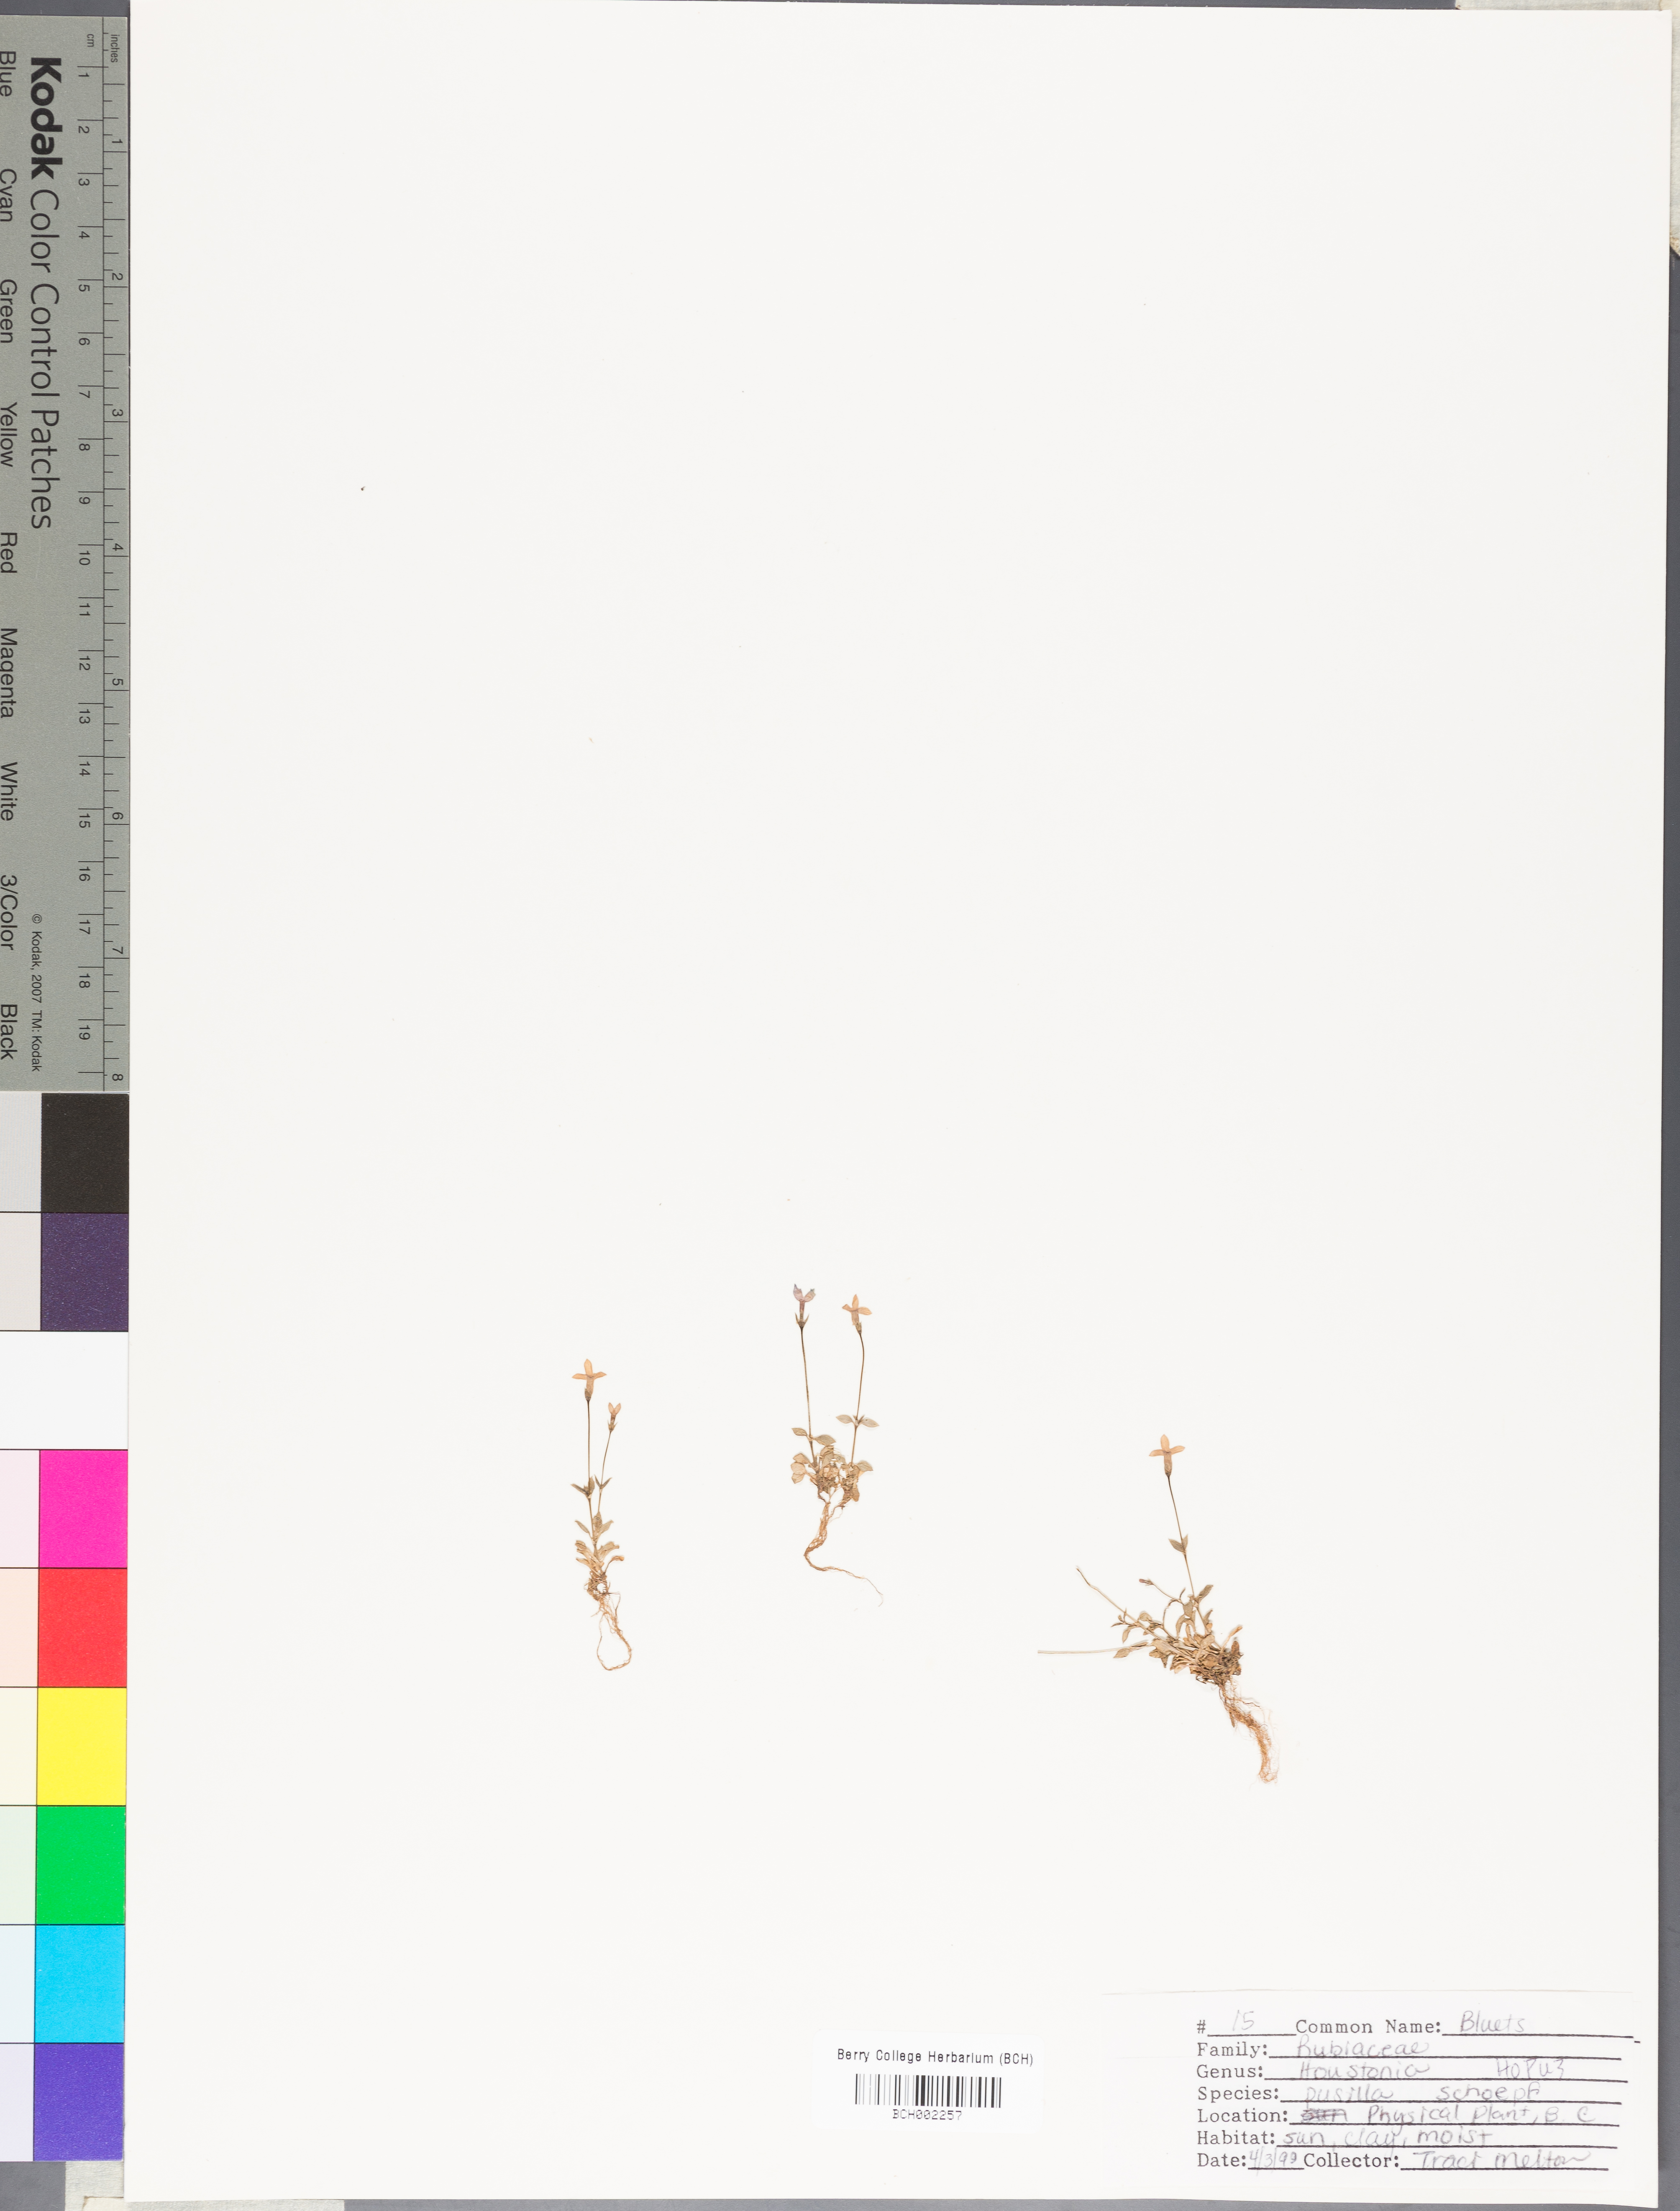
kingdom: Plantae
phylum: Tracheophyta
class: Magnoliopsida
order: Gentianales
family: Rubiaceae
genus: Houstonia
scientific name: Houstonia pusilla
